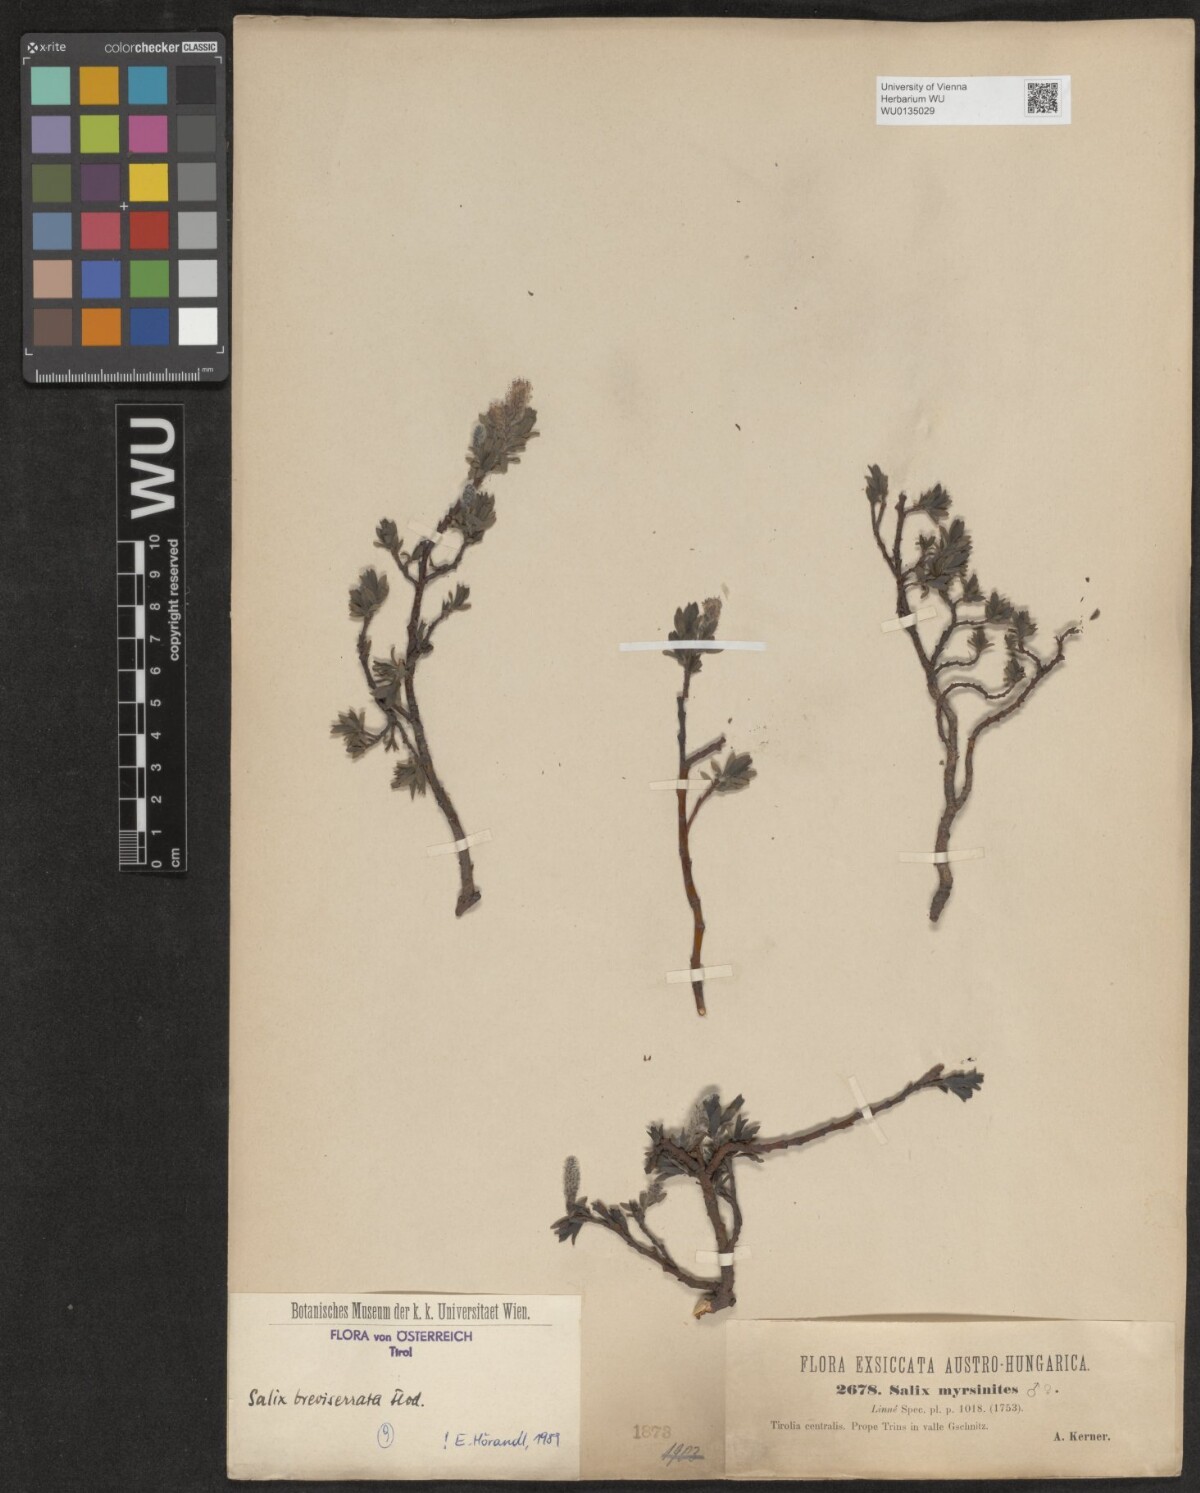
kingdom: Plantae
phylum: Tracheophyta
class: Magnoliopsida
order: Malpighiales
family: Salicaceae
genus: Salix
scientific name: Salix breviserrata
